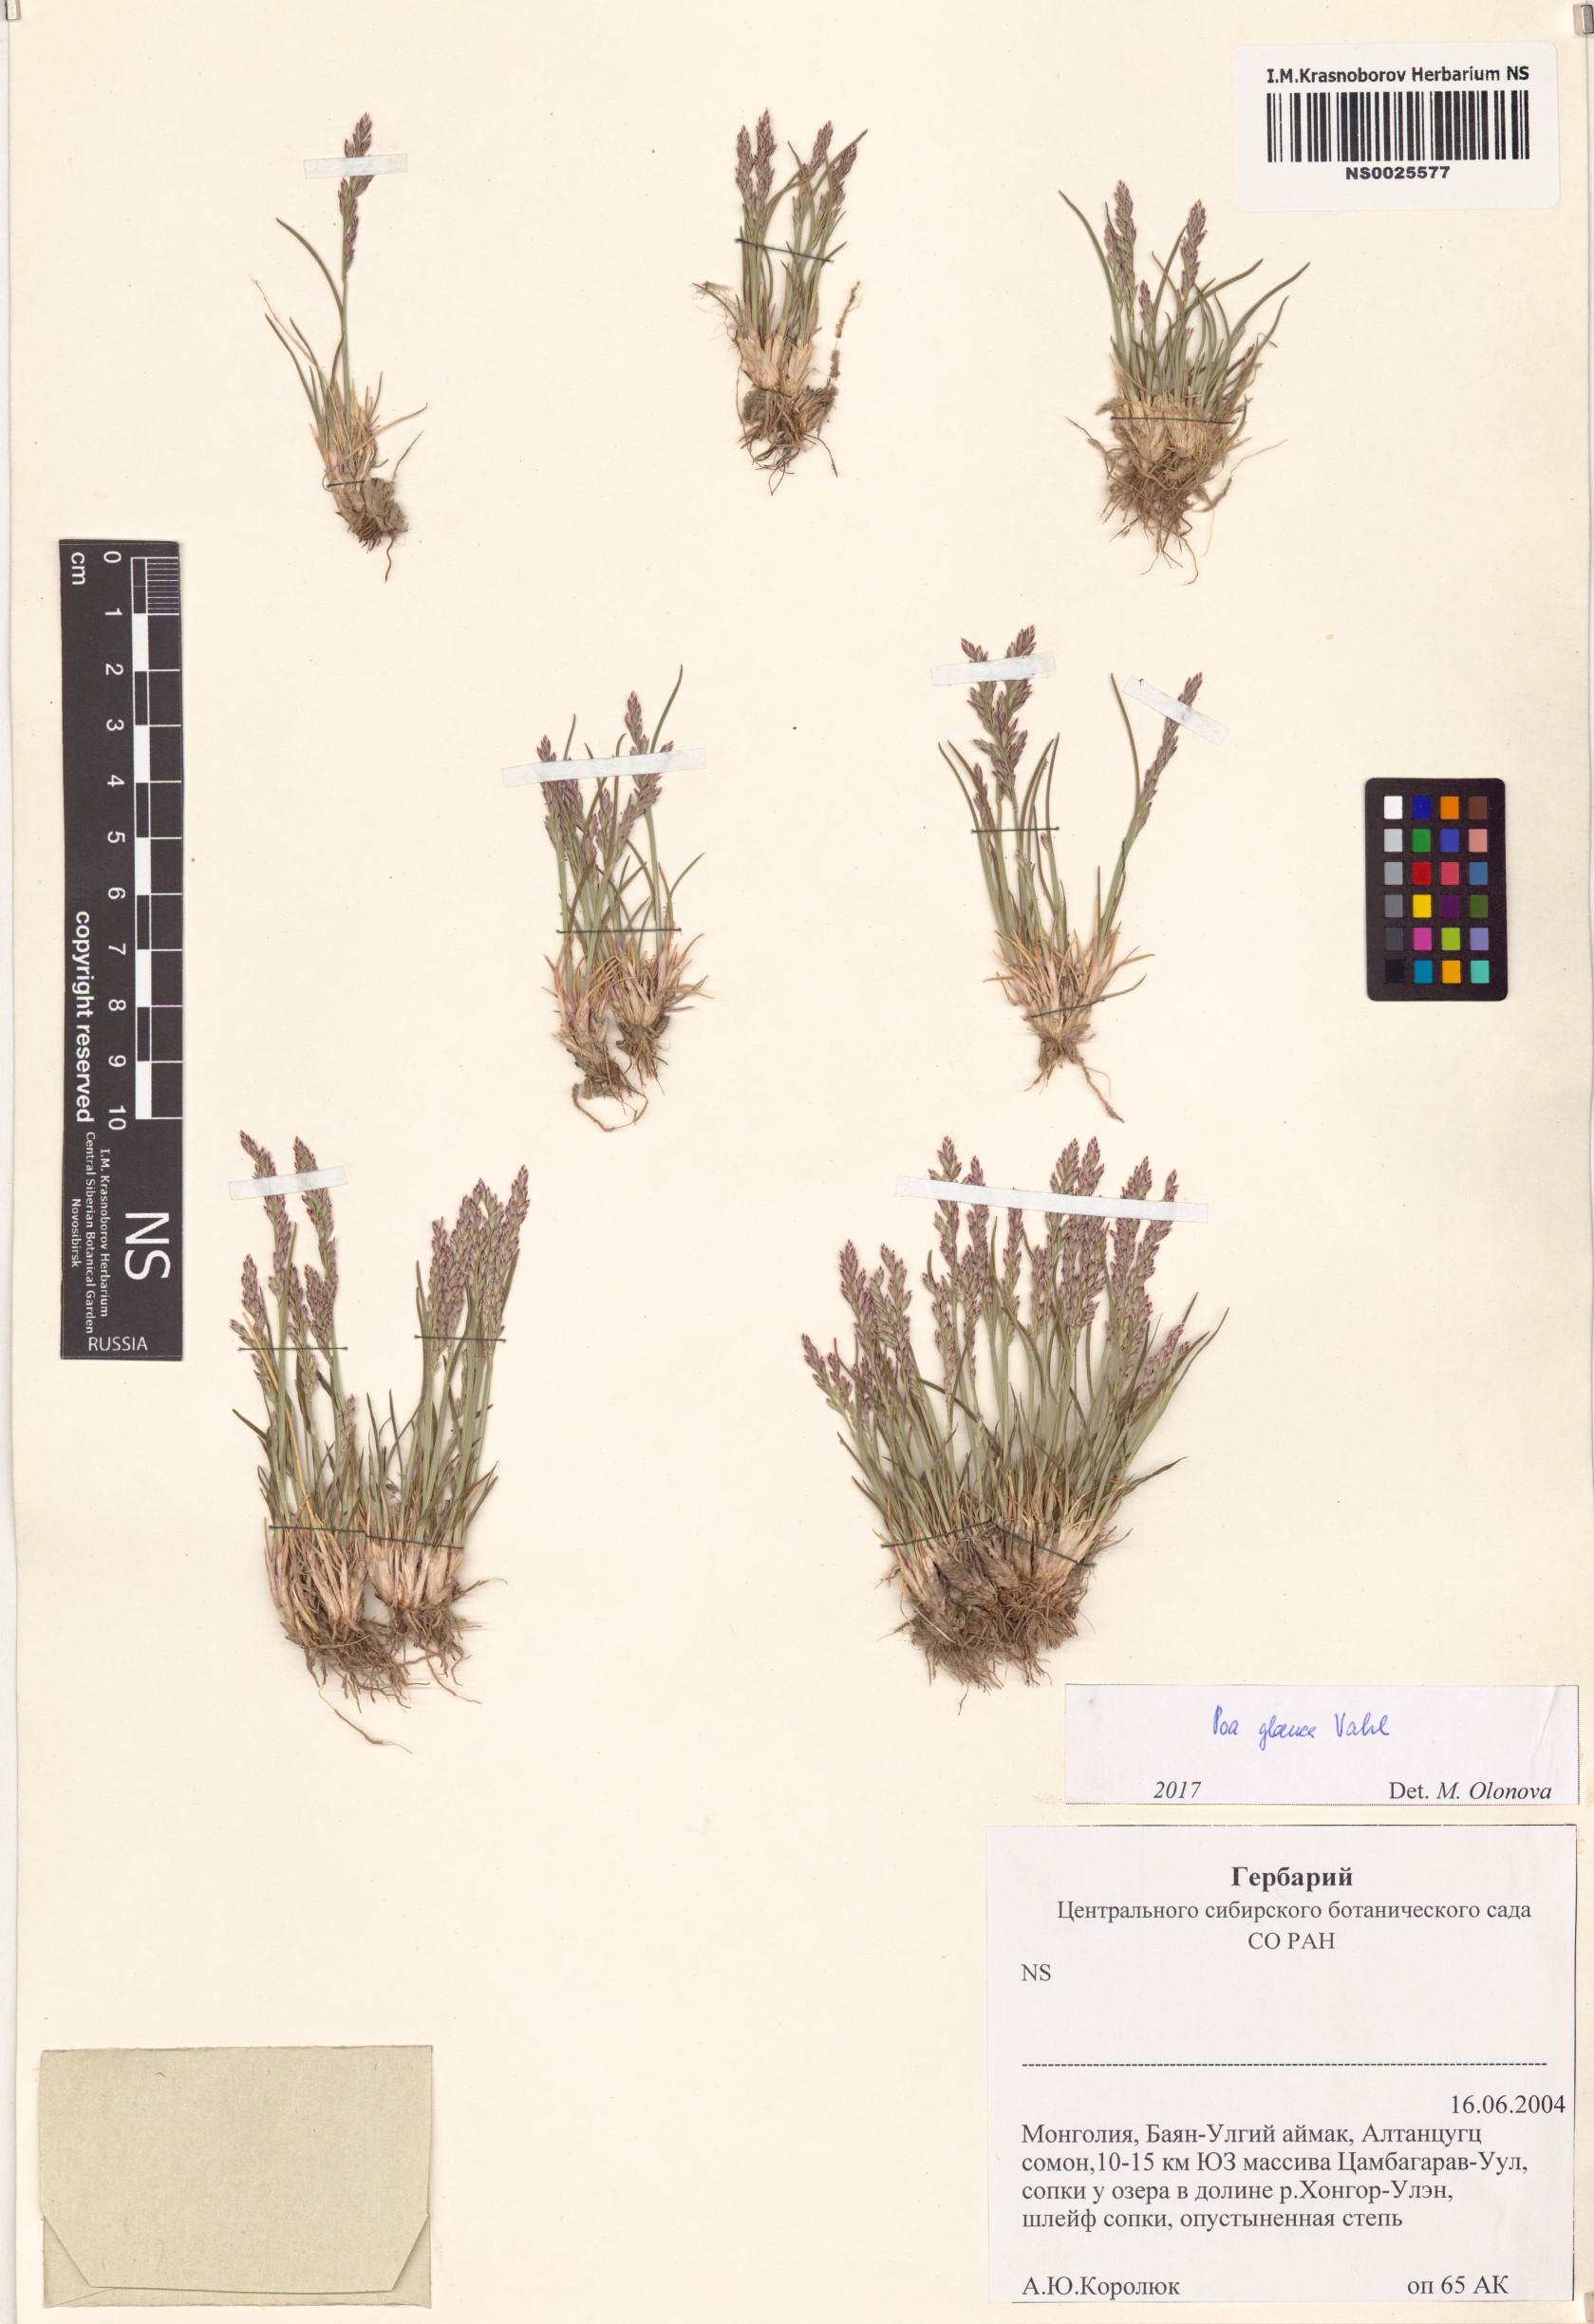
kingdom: Plantae
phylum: Tracheophyta
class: Liliopsida
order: Poales
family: Poaceae
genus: Poa
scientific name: Poa glauca
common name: Glaucous bluegrass
